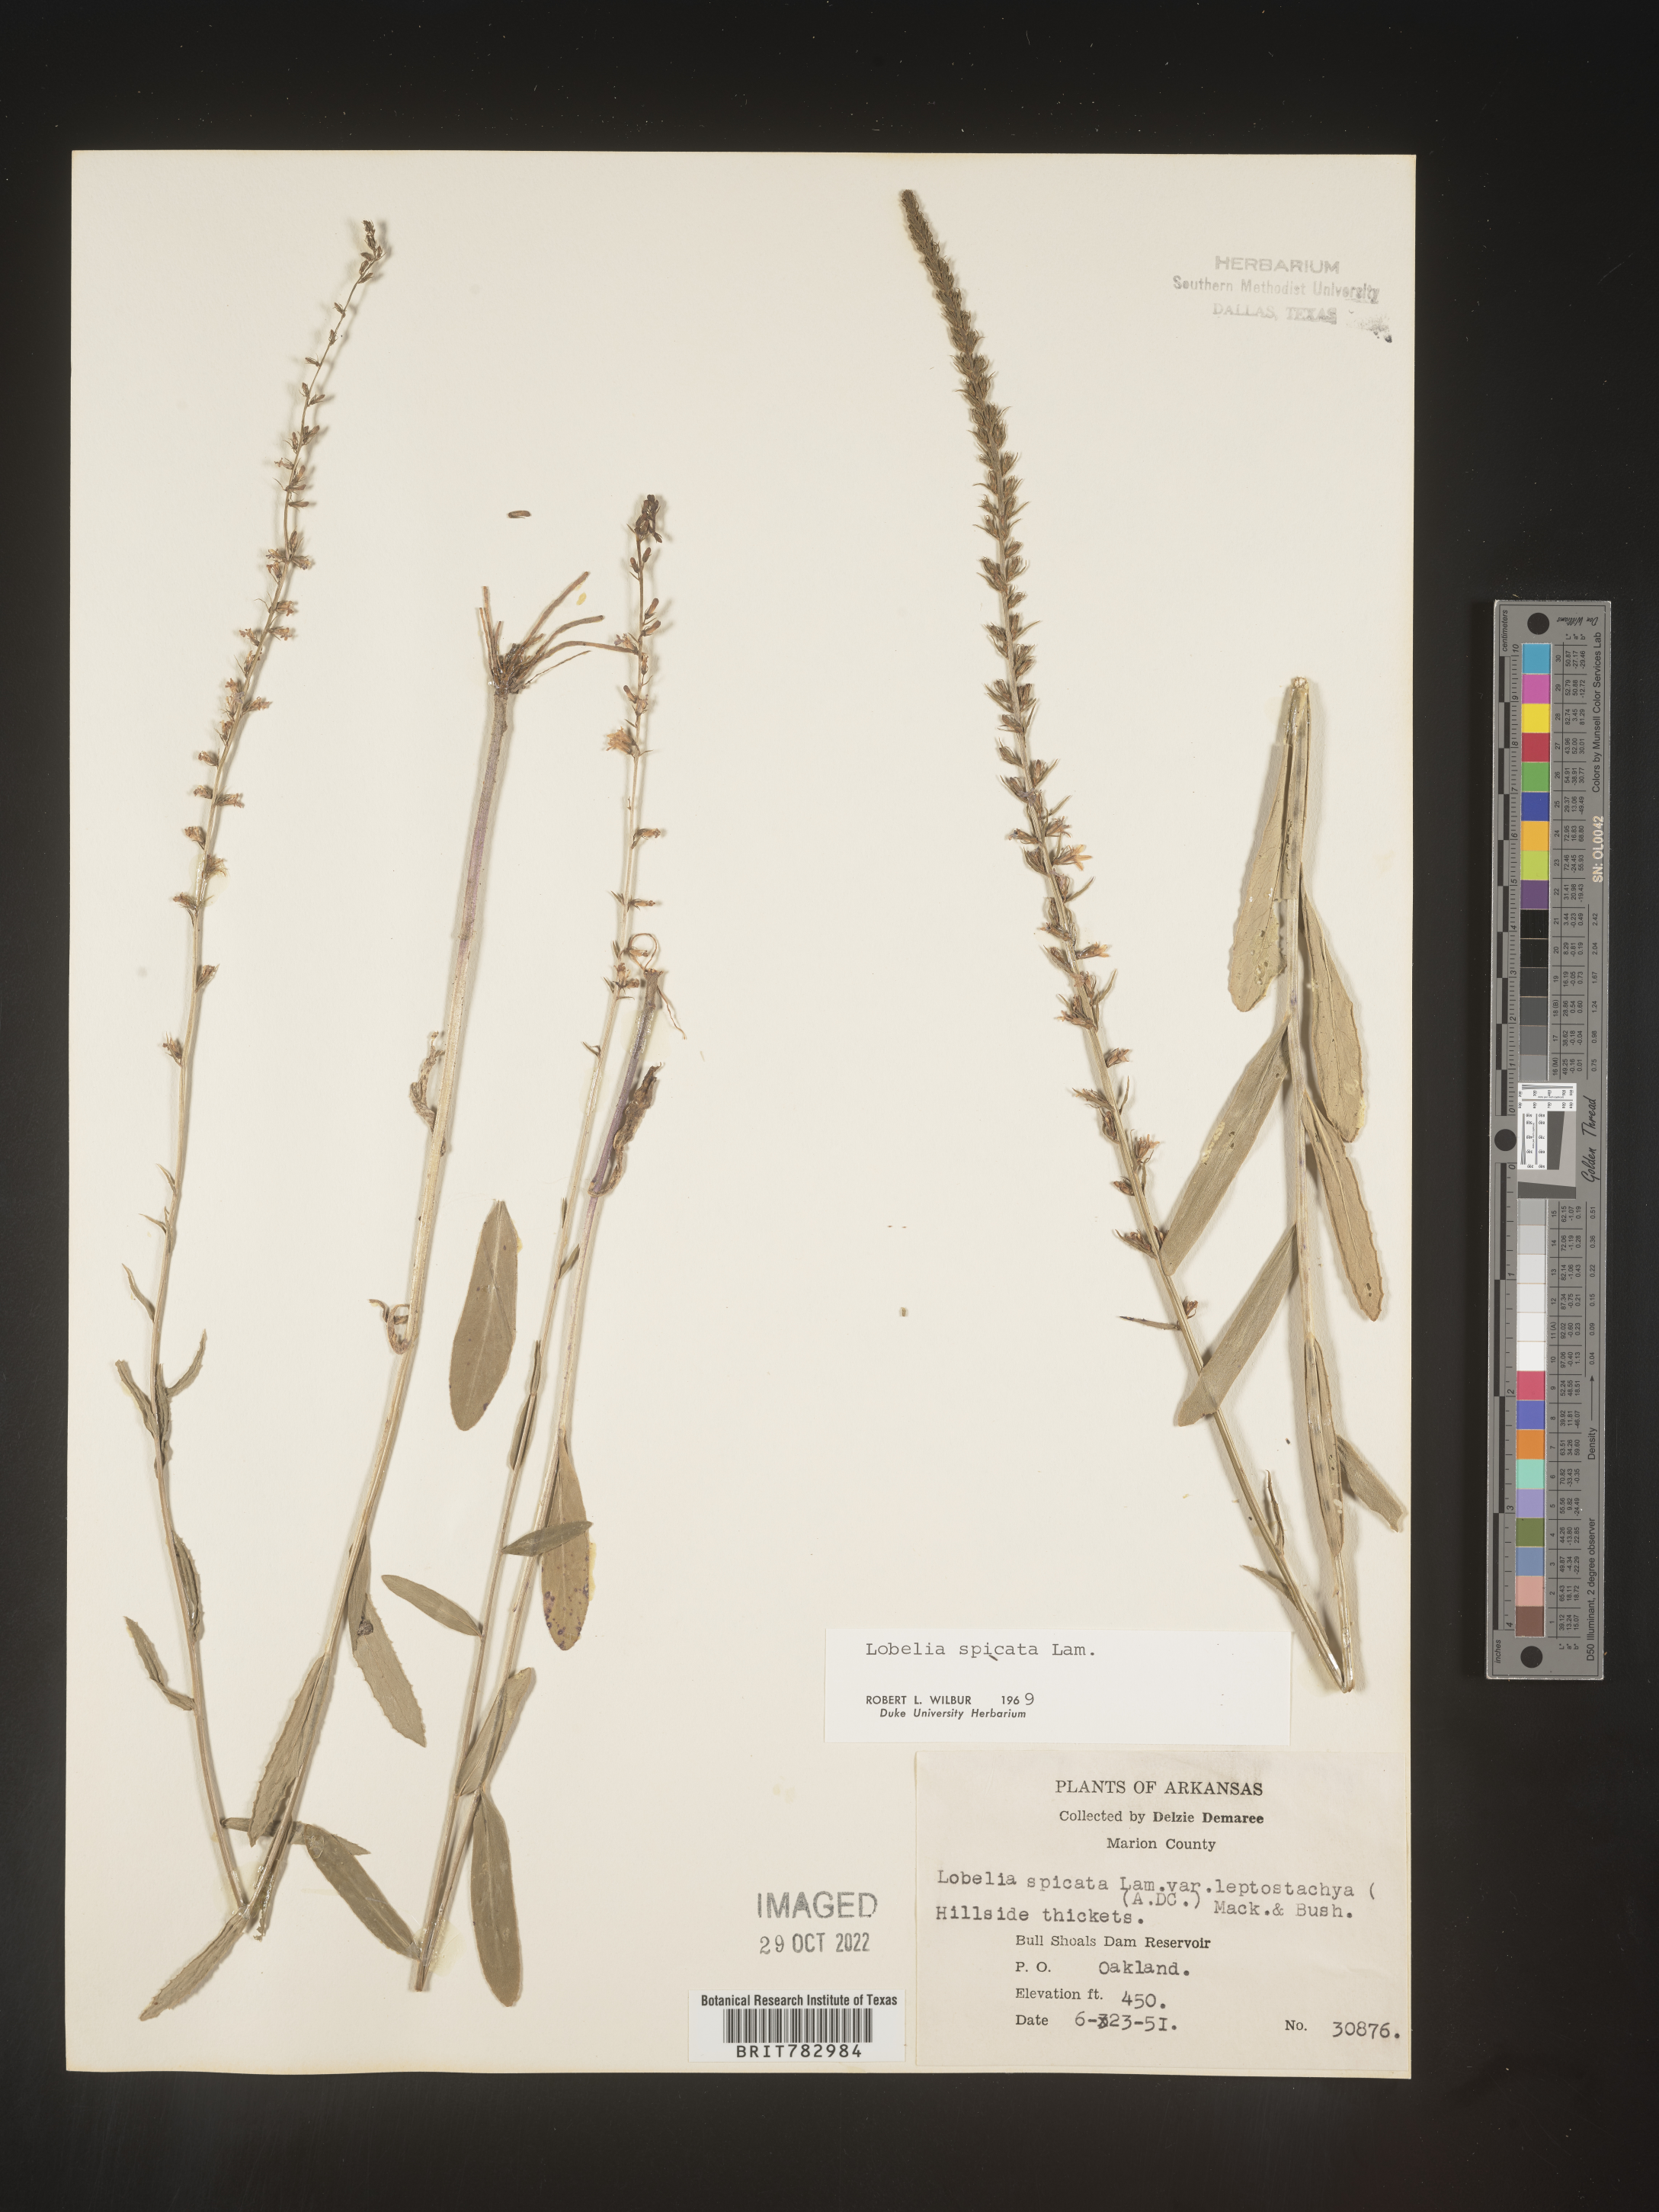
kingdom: Plantae
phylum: Tracheophyta
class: Magnoliopsida
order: Asterales
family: Campanulaceae
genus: Lobelia
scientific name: Lobelia spicata
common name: Pale-spike lobelia
